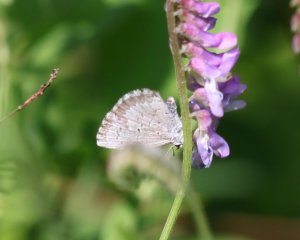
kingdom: Animalia
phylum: Arthropoda
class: Insecta
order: Lepidoptera
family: Lycaenidae
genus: Celastrina
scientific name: Celastrina serotina
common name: Cherry Gall Azure
